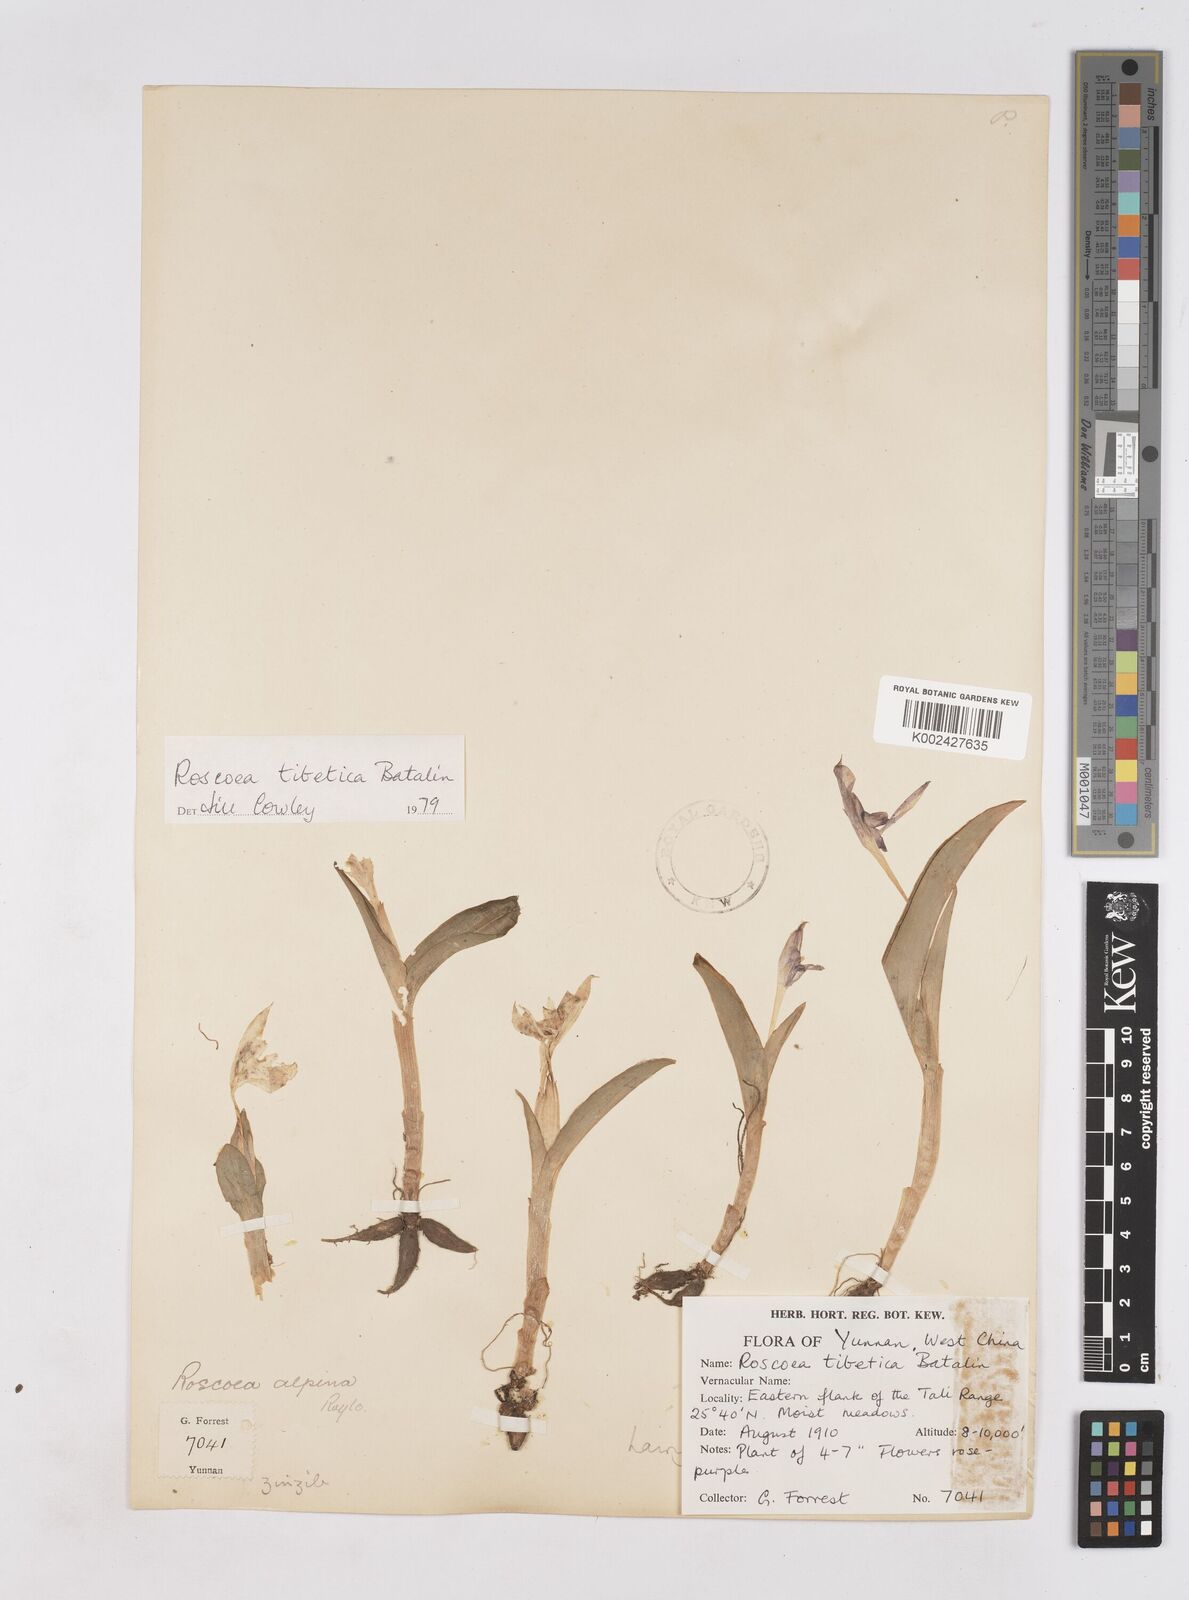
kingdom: Plantae
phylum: Tracheophyta
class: Liliopsida
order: Zingiberales
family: Zingiberaceae
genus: Roscoea
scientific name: Roscoea tibetica
